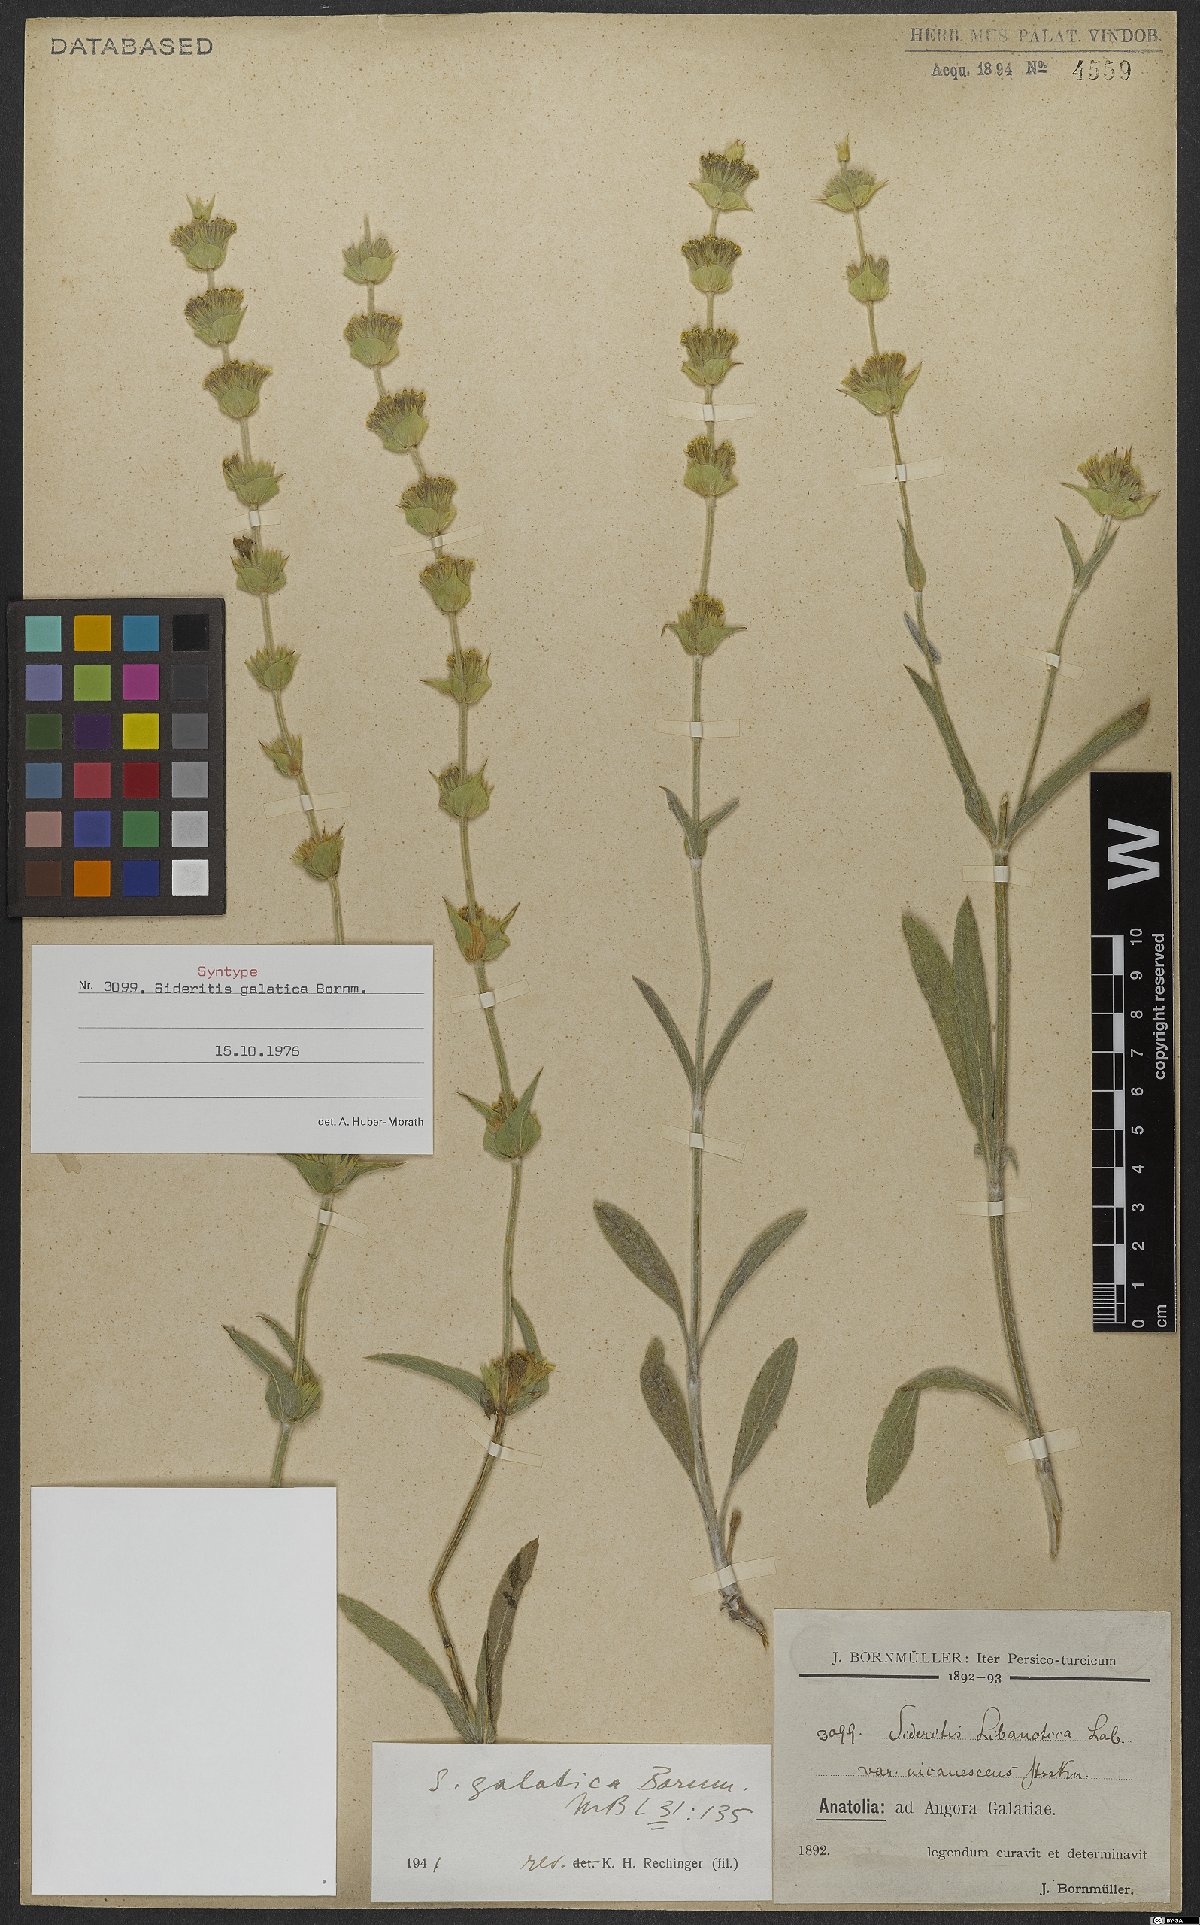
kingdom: Plantae
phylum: Tracheophyta
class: Magnoliopsida
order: Lamiales
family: Lamiaceae
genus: Sideritis
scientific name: Sideritis galatica
